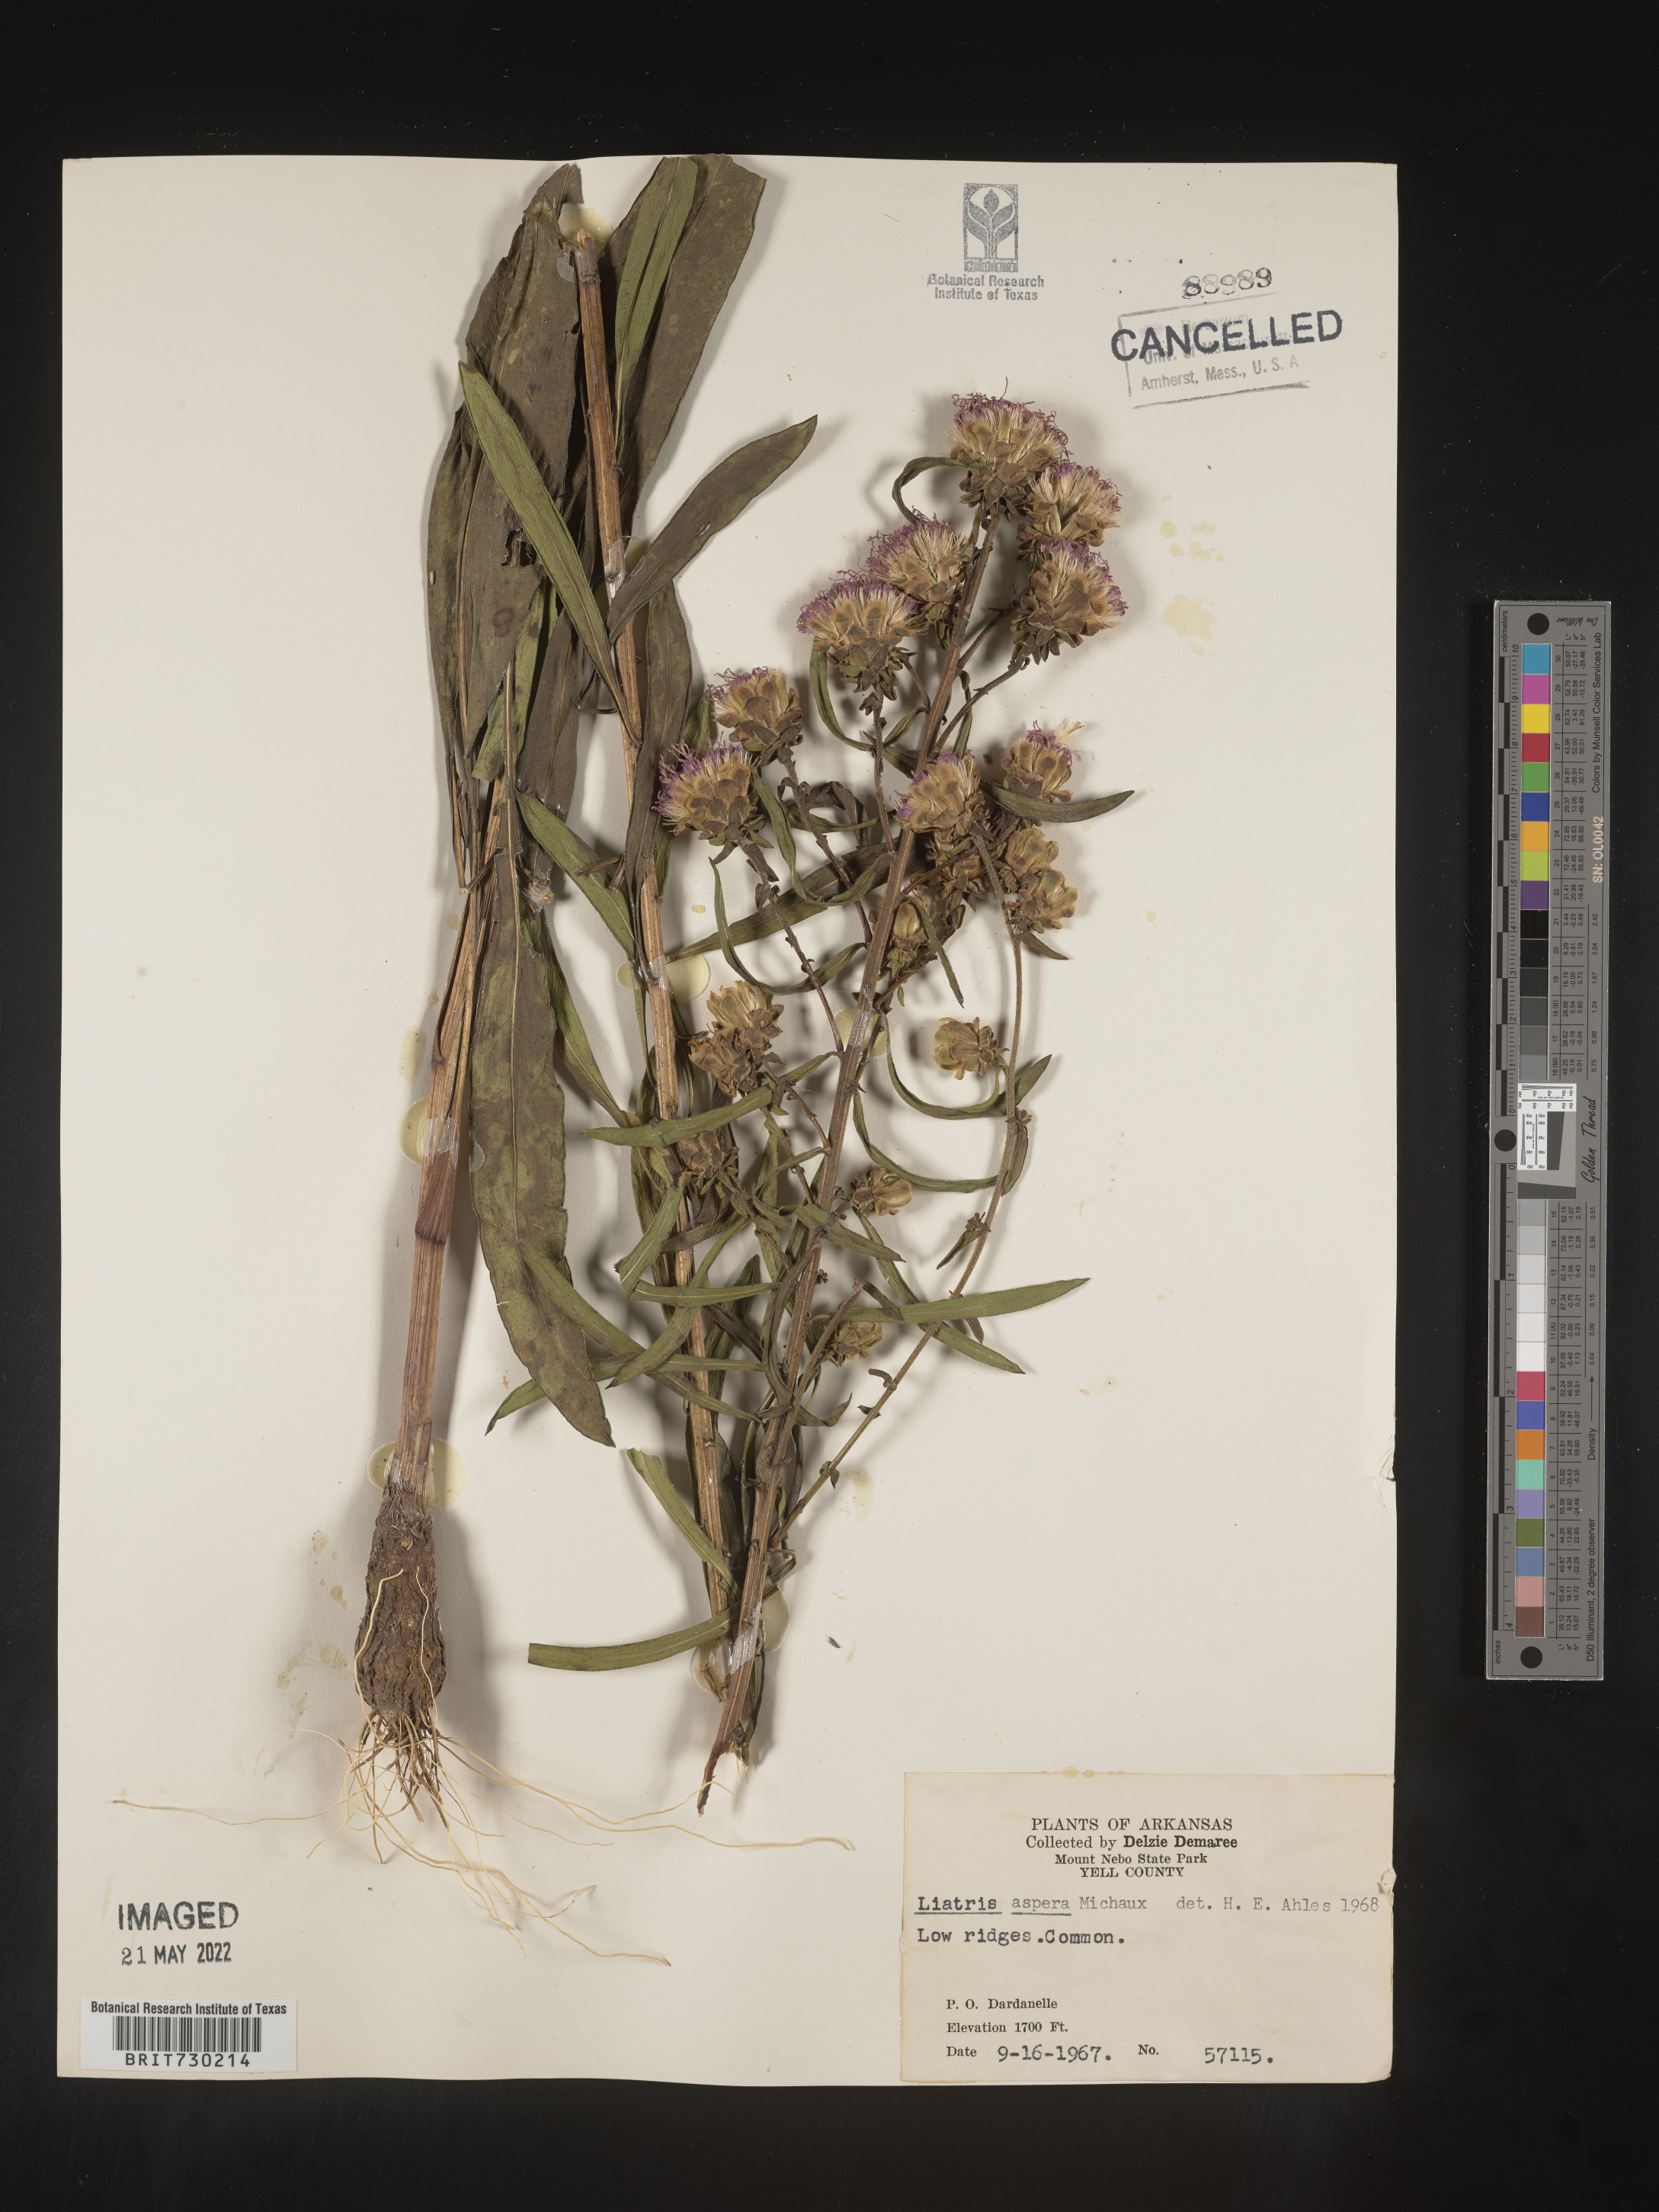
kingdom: Plantae
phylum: Tracheophyta
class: Magnoliopsida
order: Asterales
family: Asteraceae
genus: Liatris
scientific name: Liatris aspera
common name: Lacerate blazing-star
